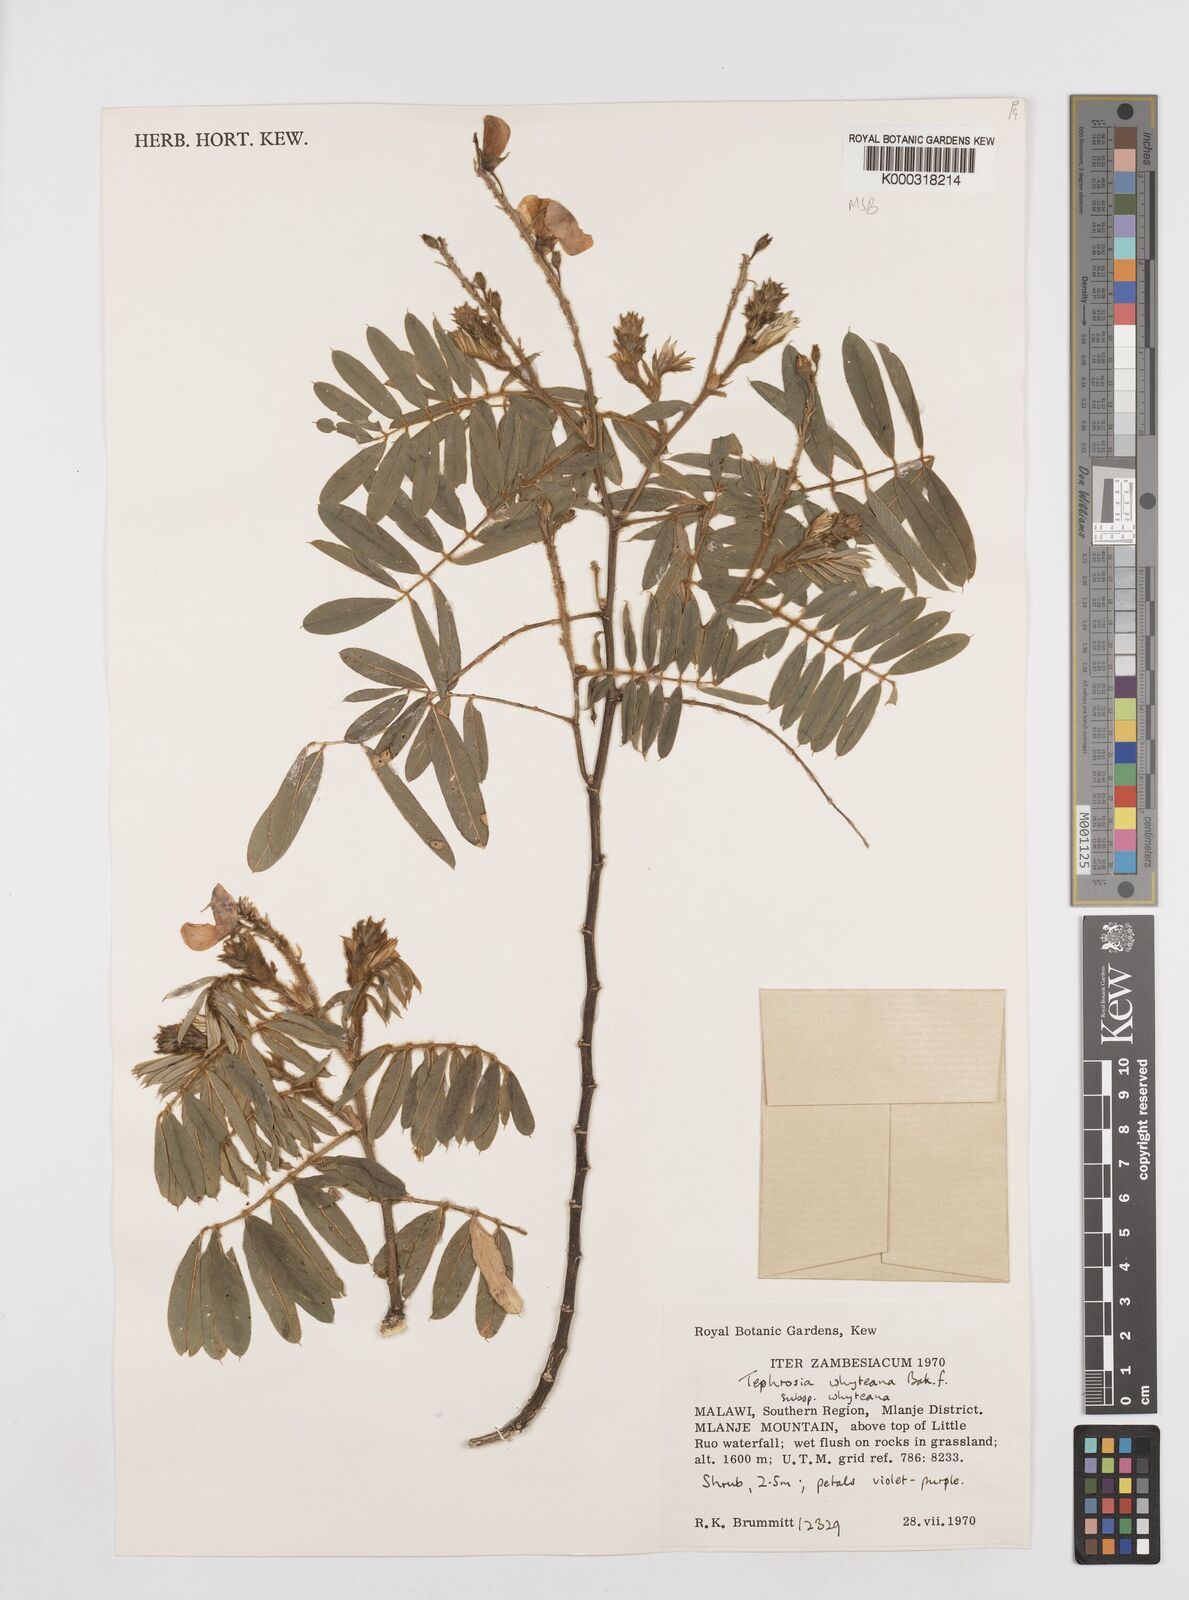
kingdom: Plantae
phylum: Tracheophyta
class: Magnoliopsida
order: Fabales
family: Fabaceae
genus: Tephrosia
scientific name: Tephrosia whyteana
